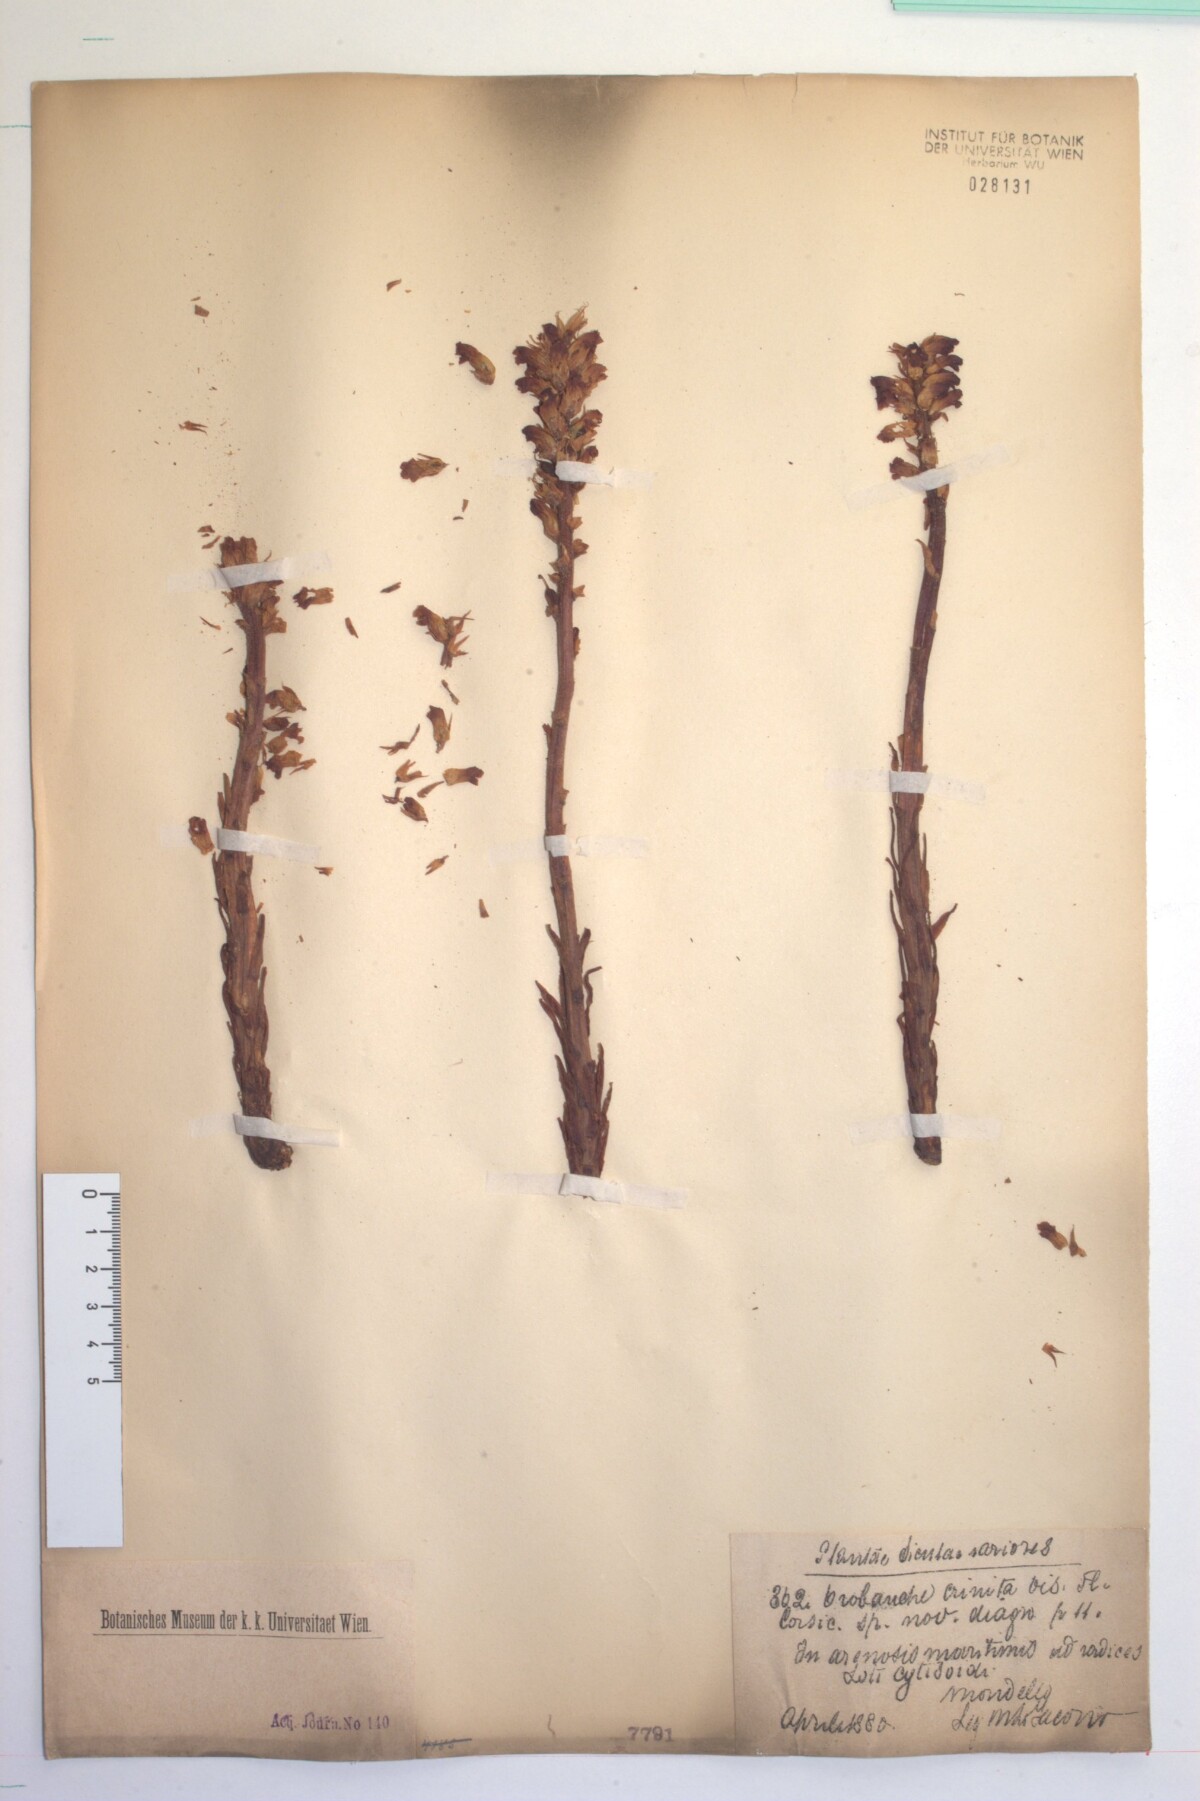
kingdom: Plantae
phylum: Tracheophyta
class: Magnoliopsida
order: Lamiales
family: Orobanchaceae
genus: Orobanche
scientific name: Orobanche sanguinea
